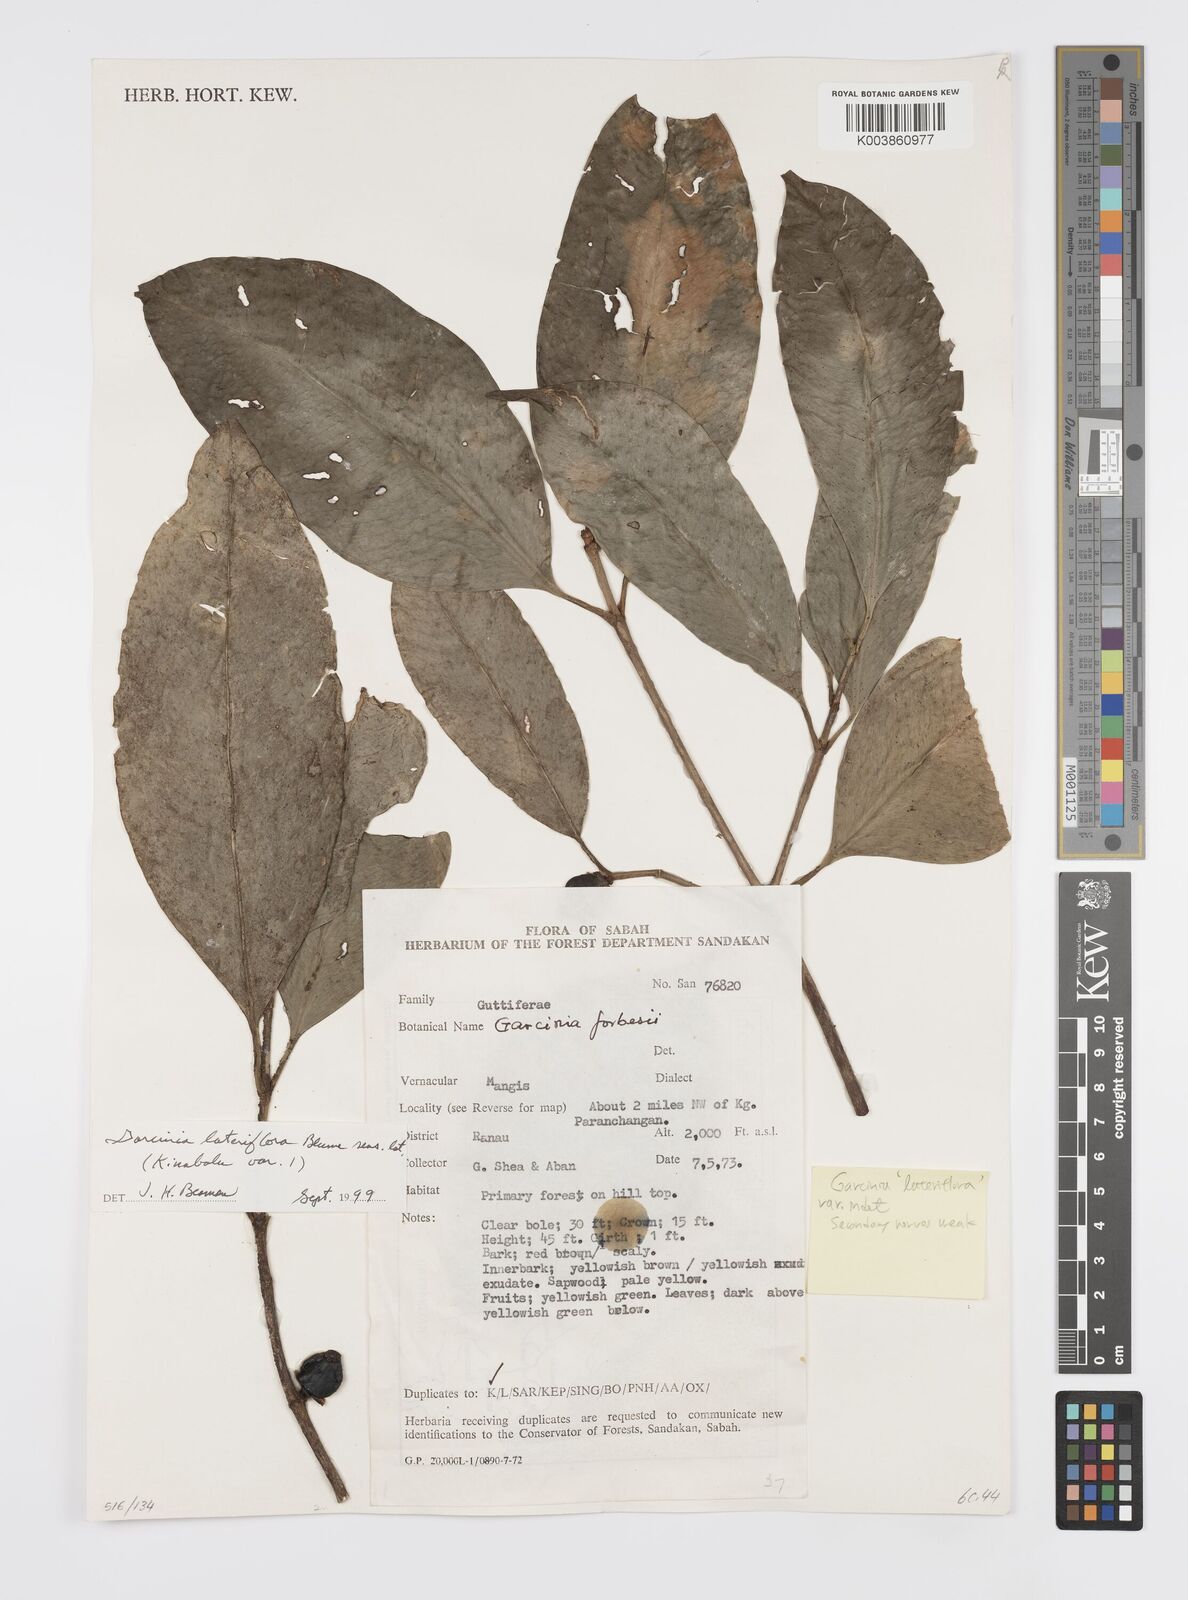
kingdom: Plantae
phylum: Tracheophyta
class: Magnoliopsida
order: Malpighiales
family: Clusiaceae
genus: Garcinia
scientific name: Garcinia lateriflora
